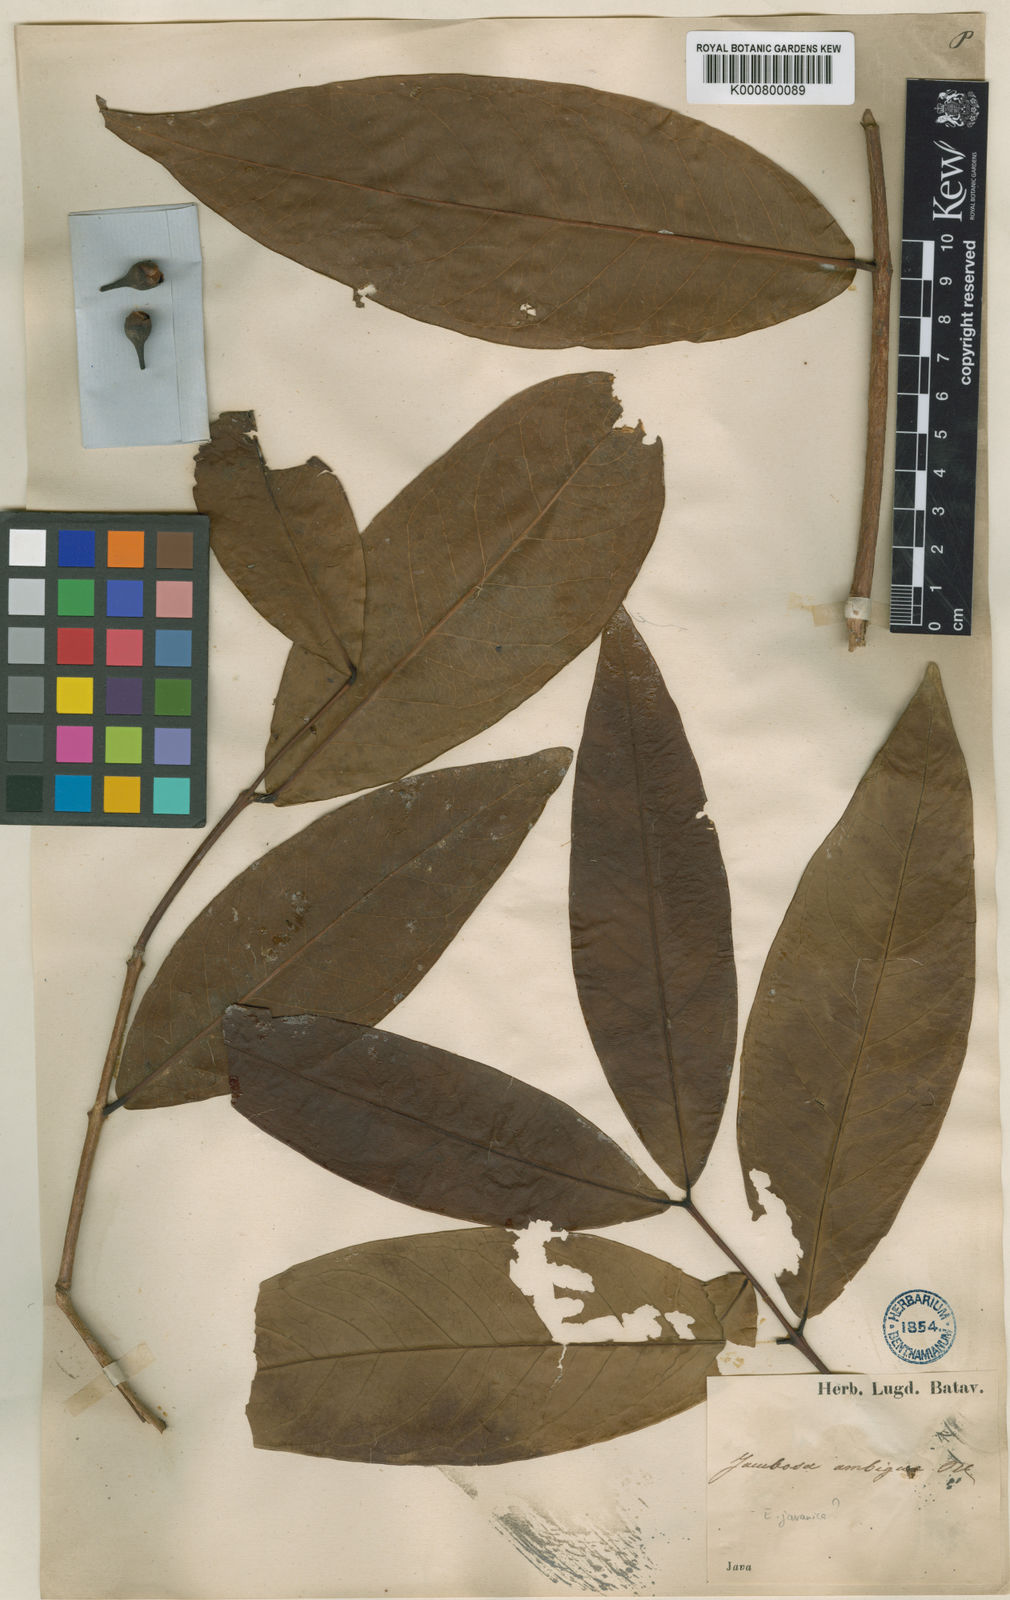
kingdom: Plantae
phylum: Tracheophyta
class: Magnoliopsida
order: Myrtales
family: Myrtaceae
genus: Syzygium
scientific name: Syzygium malaccense
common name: Malaysian apple
